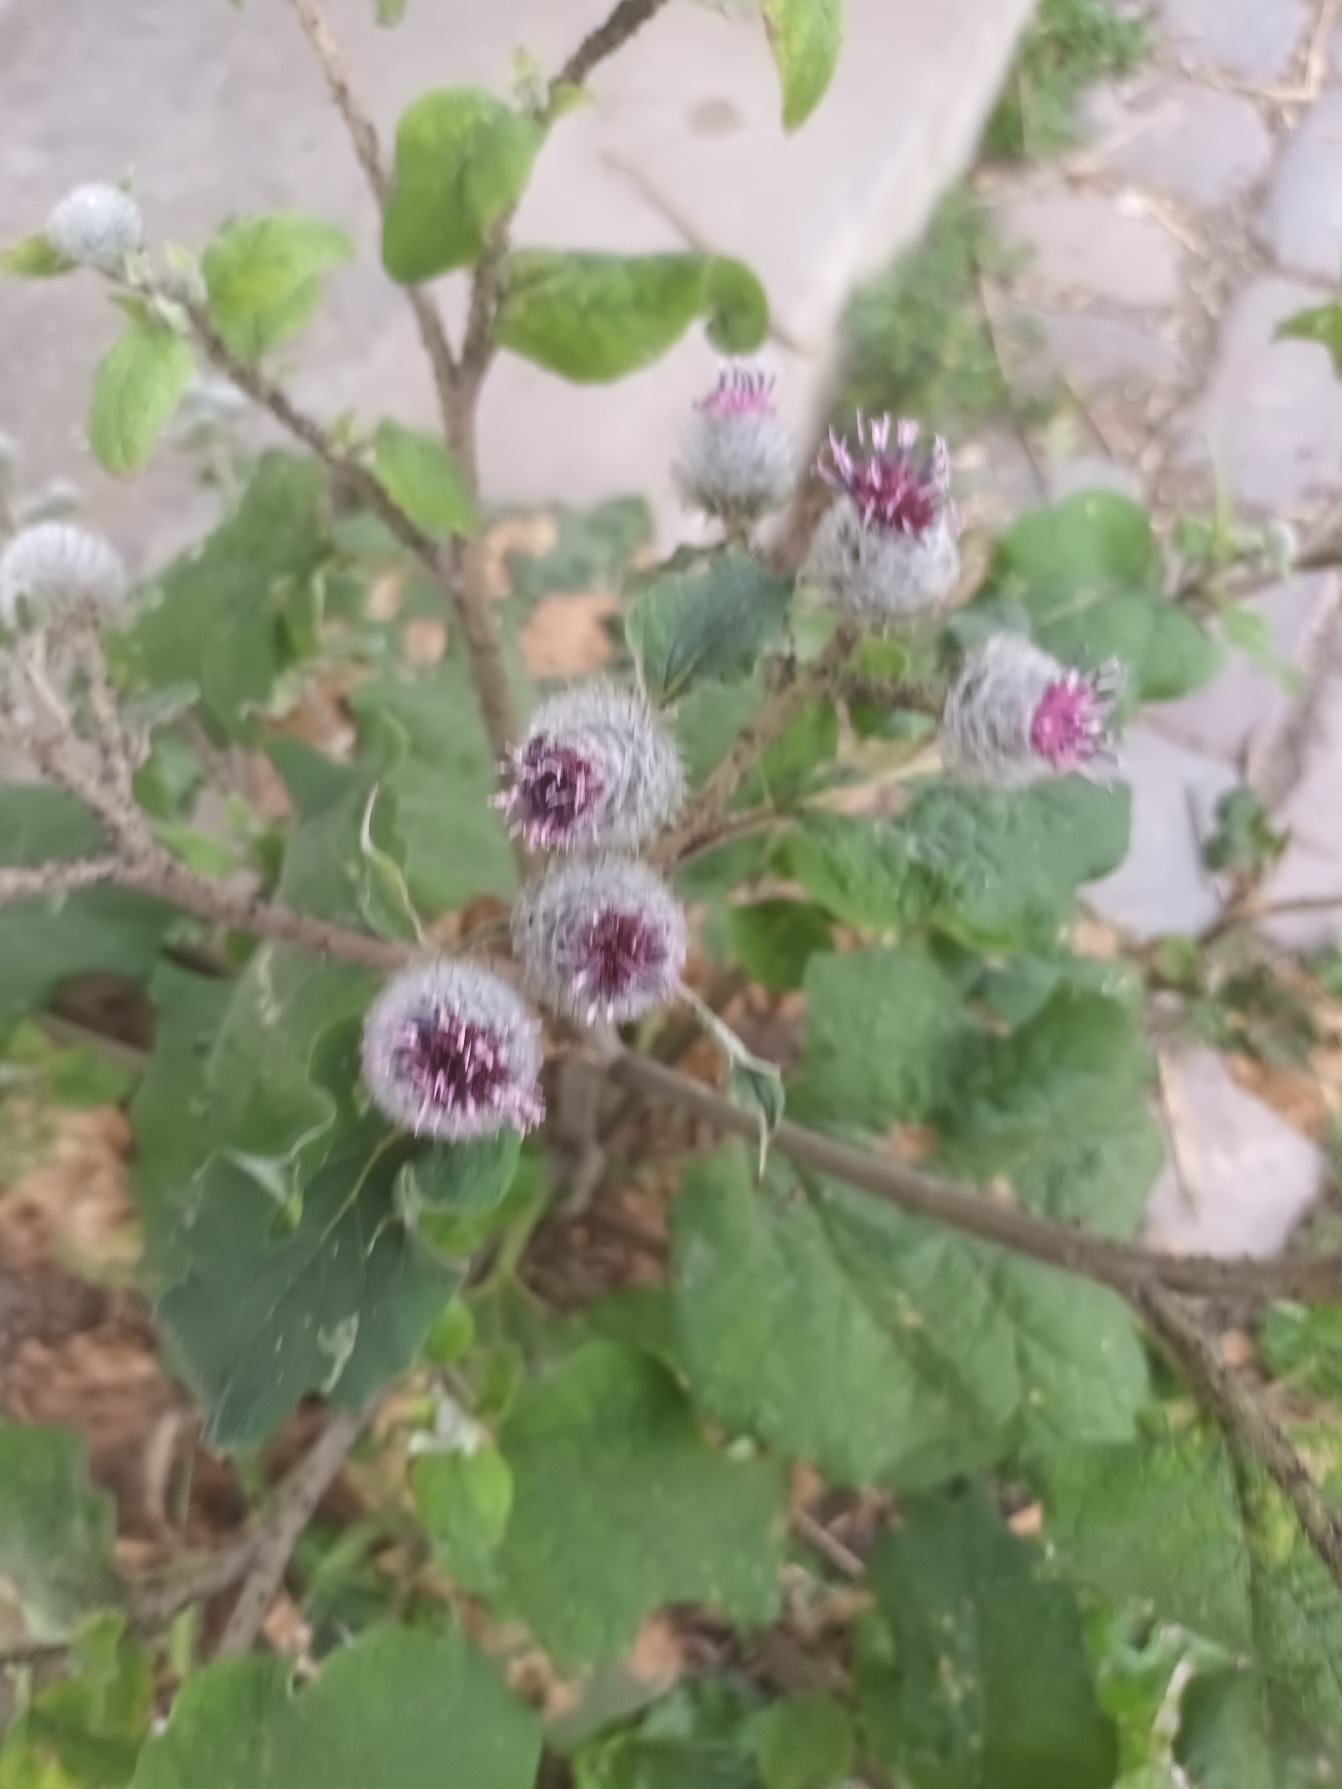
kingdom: Plantae
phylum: Tracheophyta
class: Magnoliopsida
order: Asterales
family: Asteraceae
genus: Arctium
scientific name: Arctium tomentosum
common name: Filtet burre
